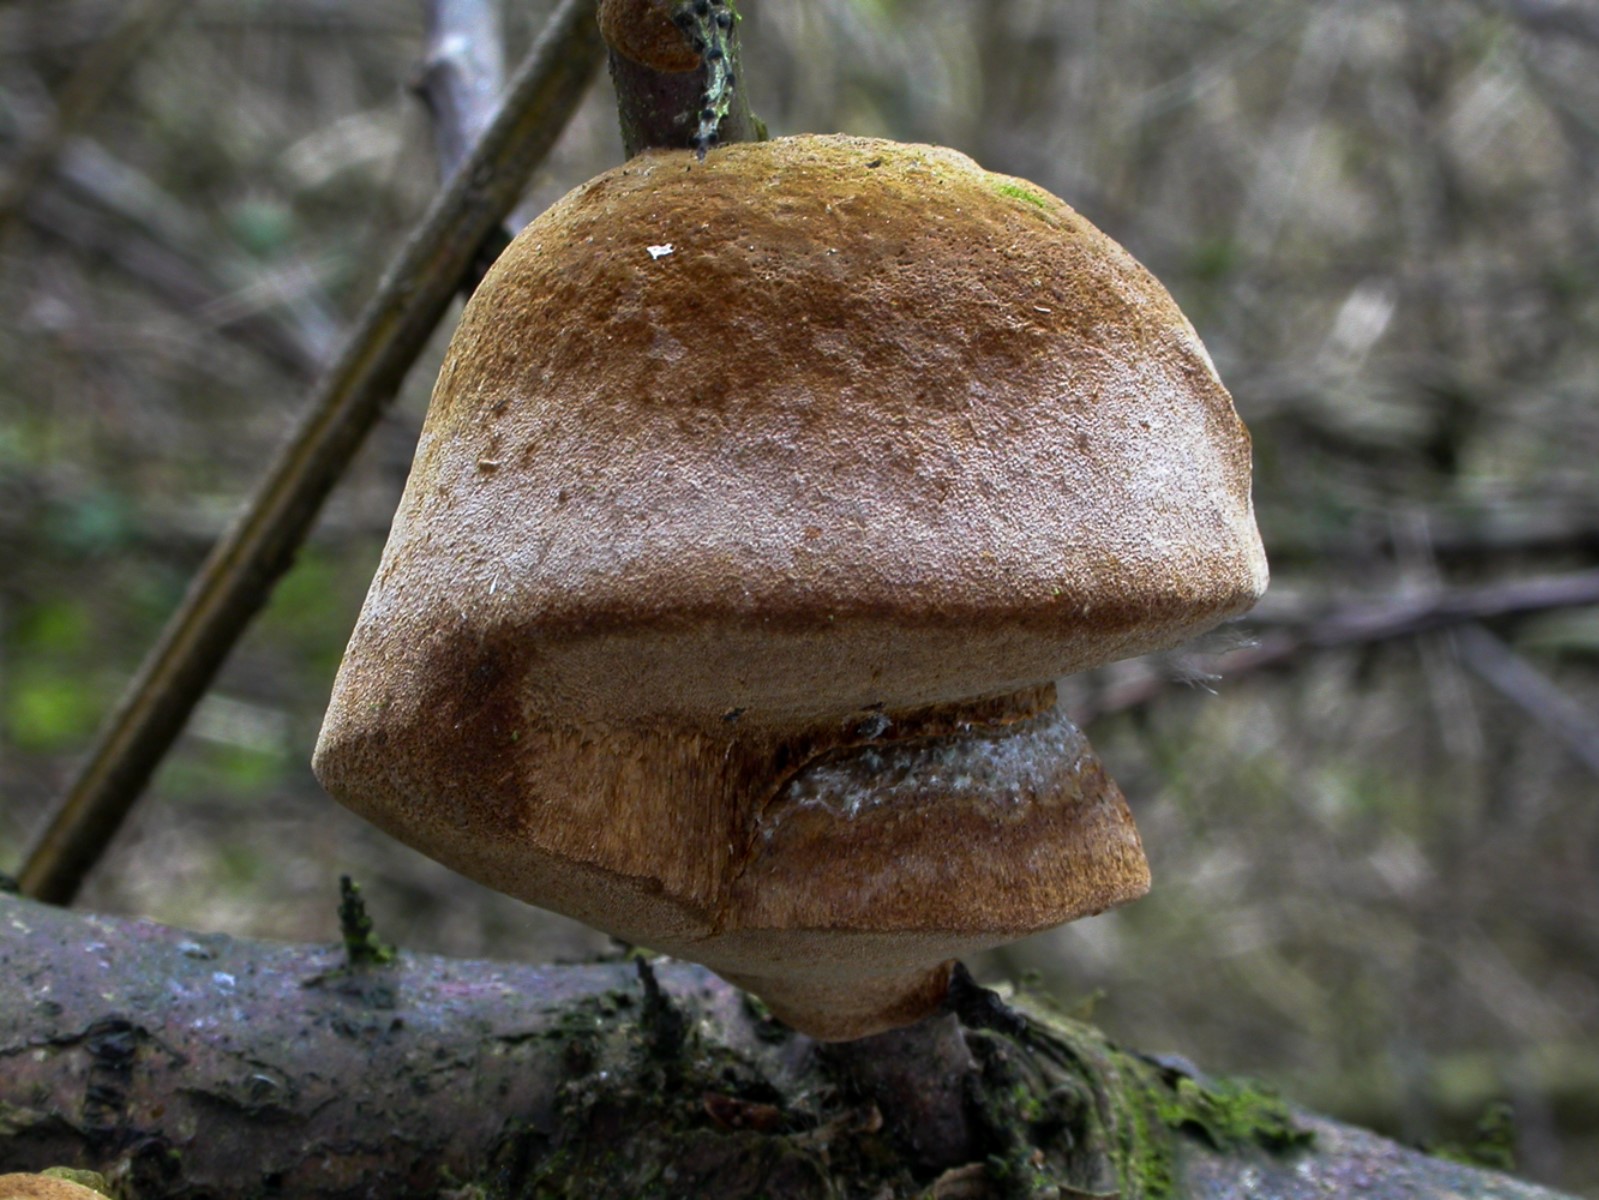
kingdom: Fungi
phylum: Basidiomycota
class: Agaricomycetes
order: Hymenochaetales
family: Hymenochaetaceae
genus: Fomitiporia
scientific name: Fomitiporia hippophaeicola
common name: havtorn-ildporesvamp
